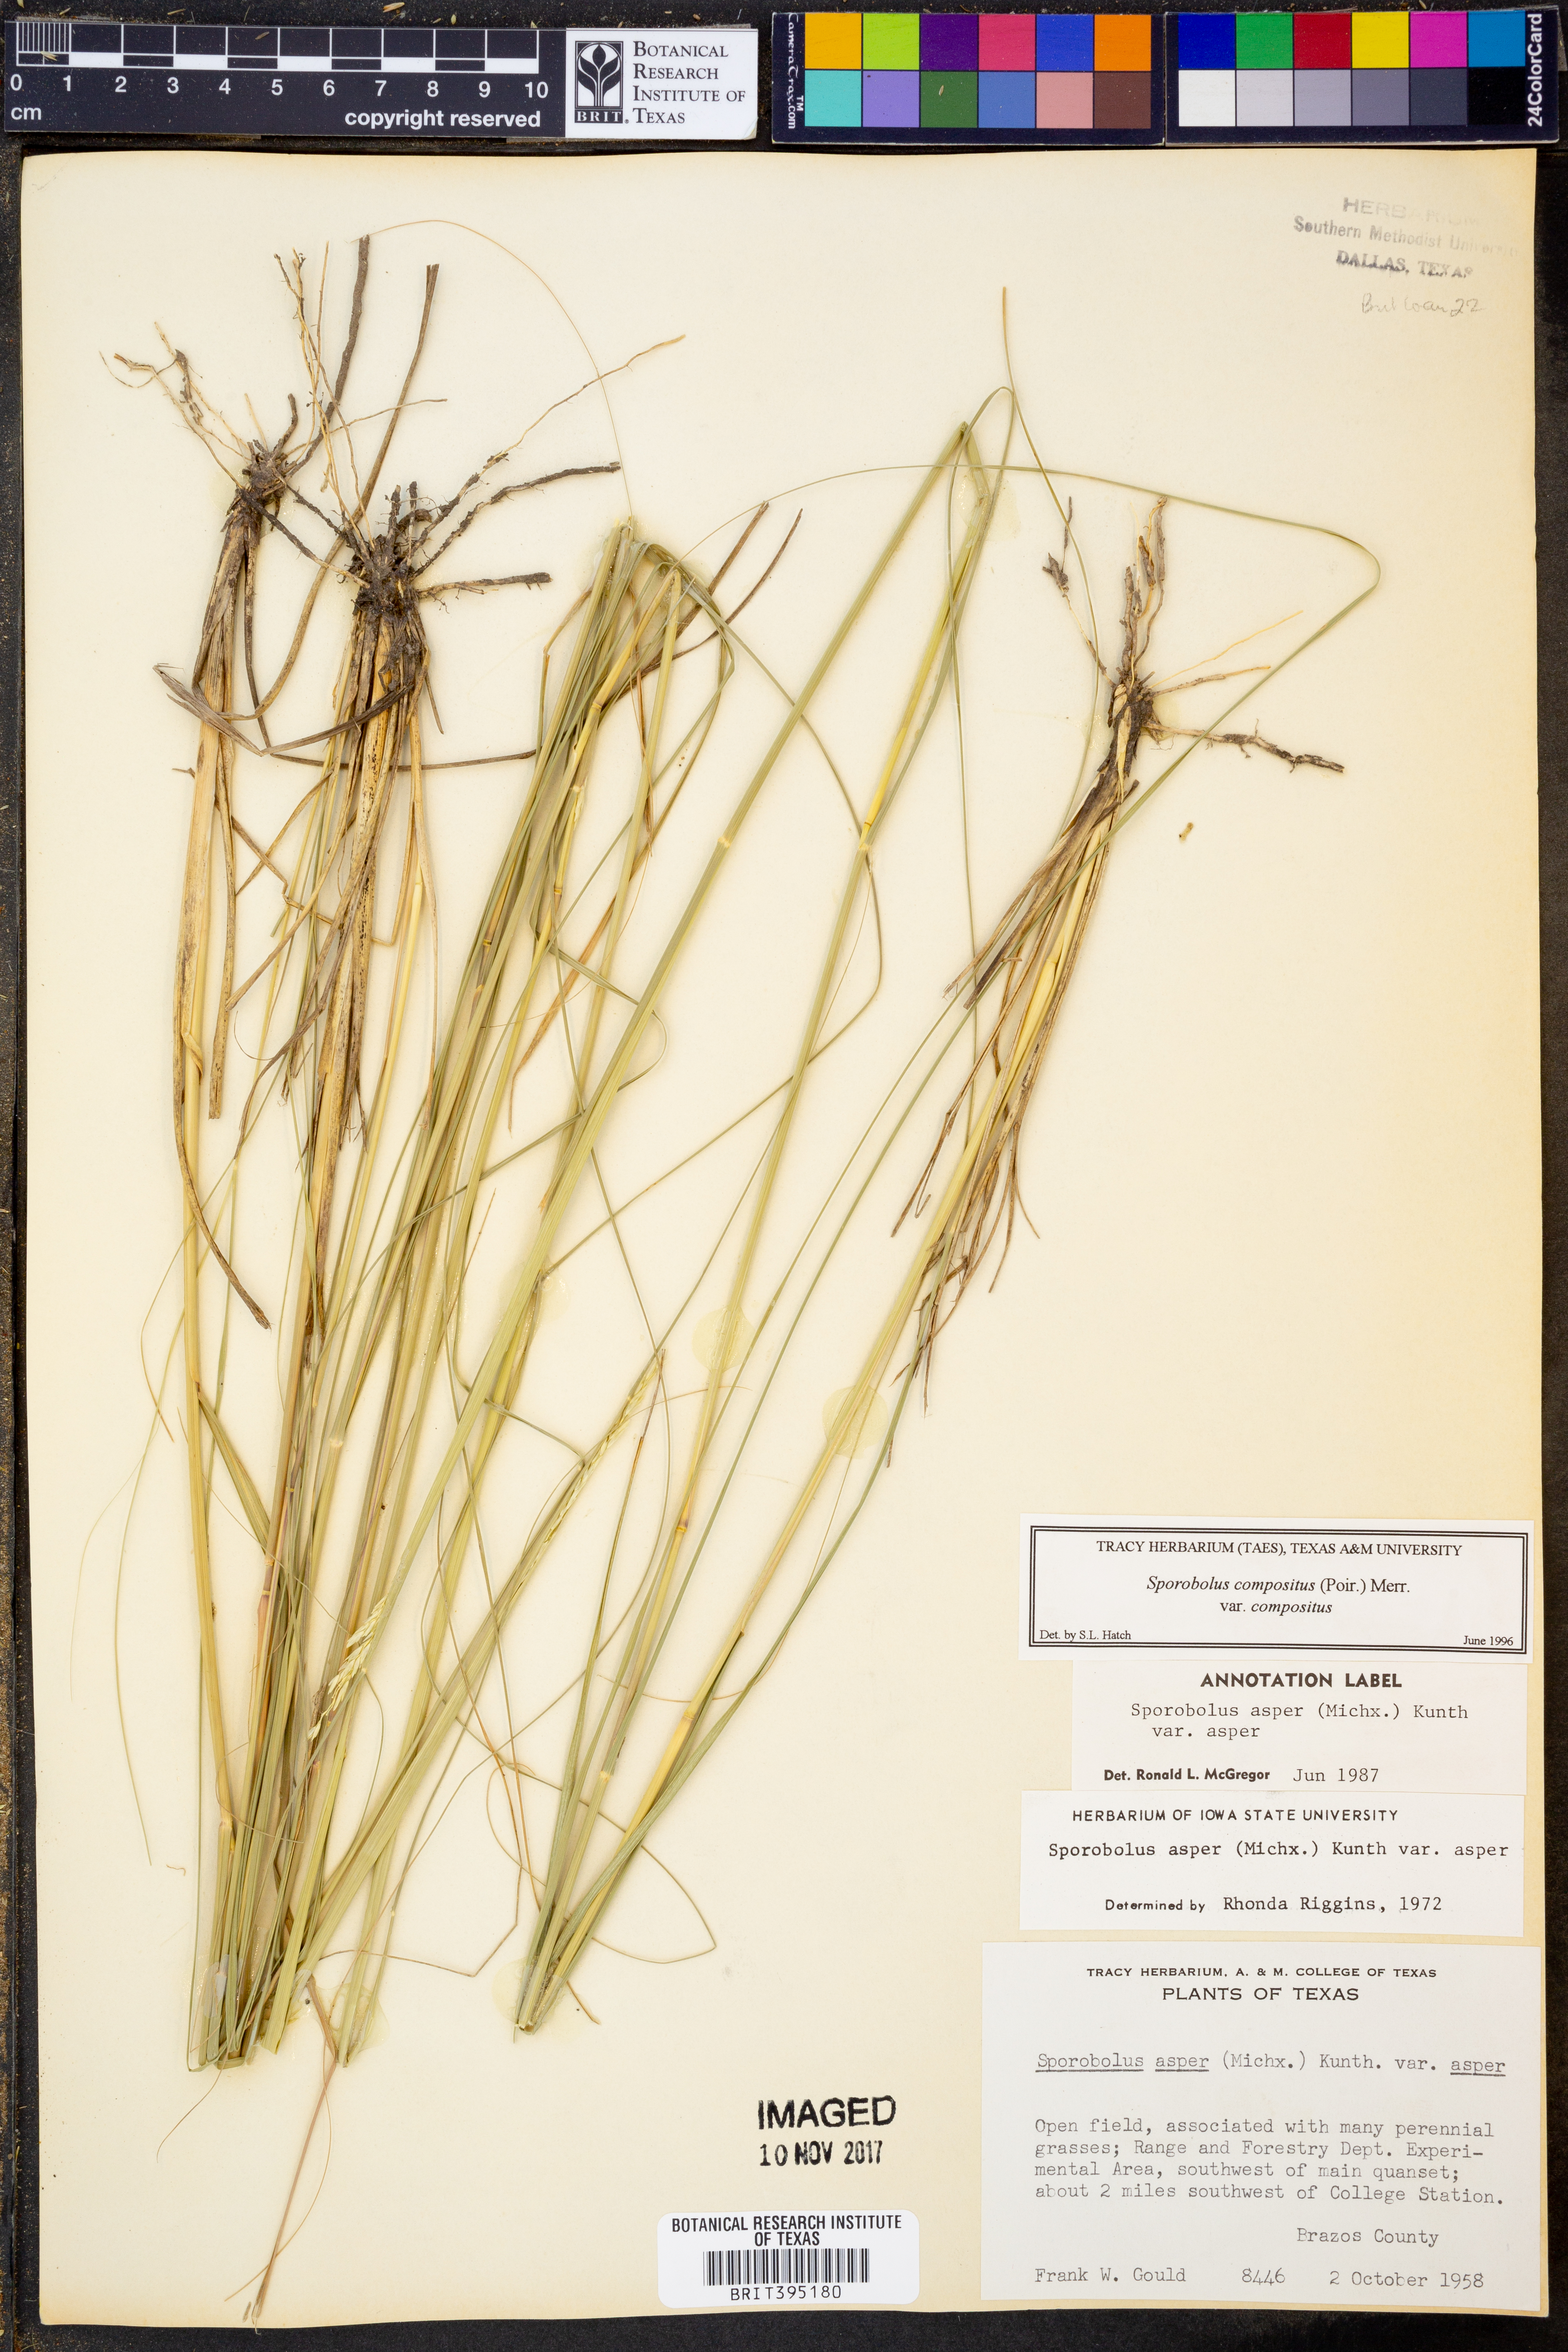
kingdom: Plantae
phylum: Tracheophyta
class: Liliopsida
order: Poales
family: Poaceae
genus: Sporobolus
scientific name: Sporobolus compositus
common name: Rough dropseed
